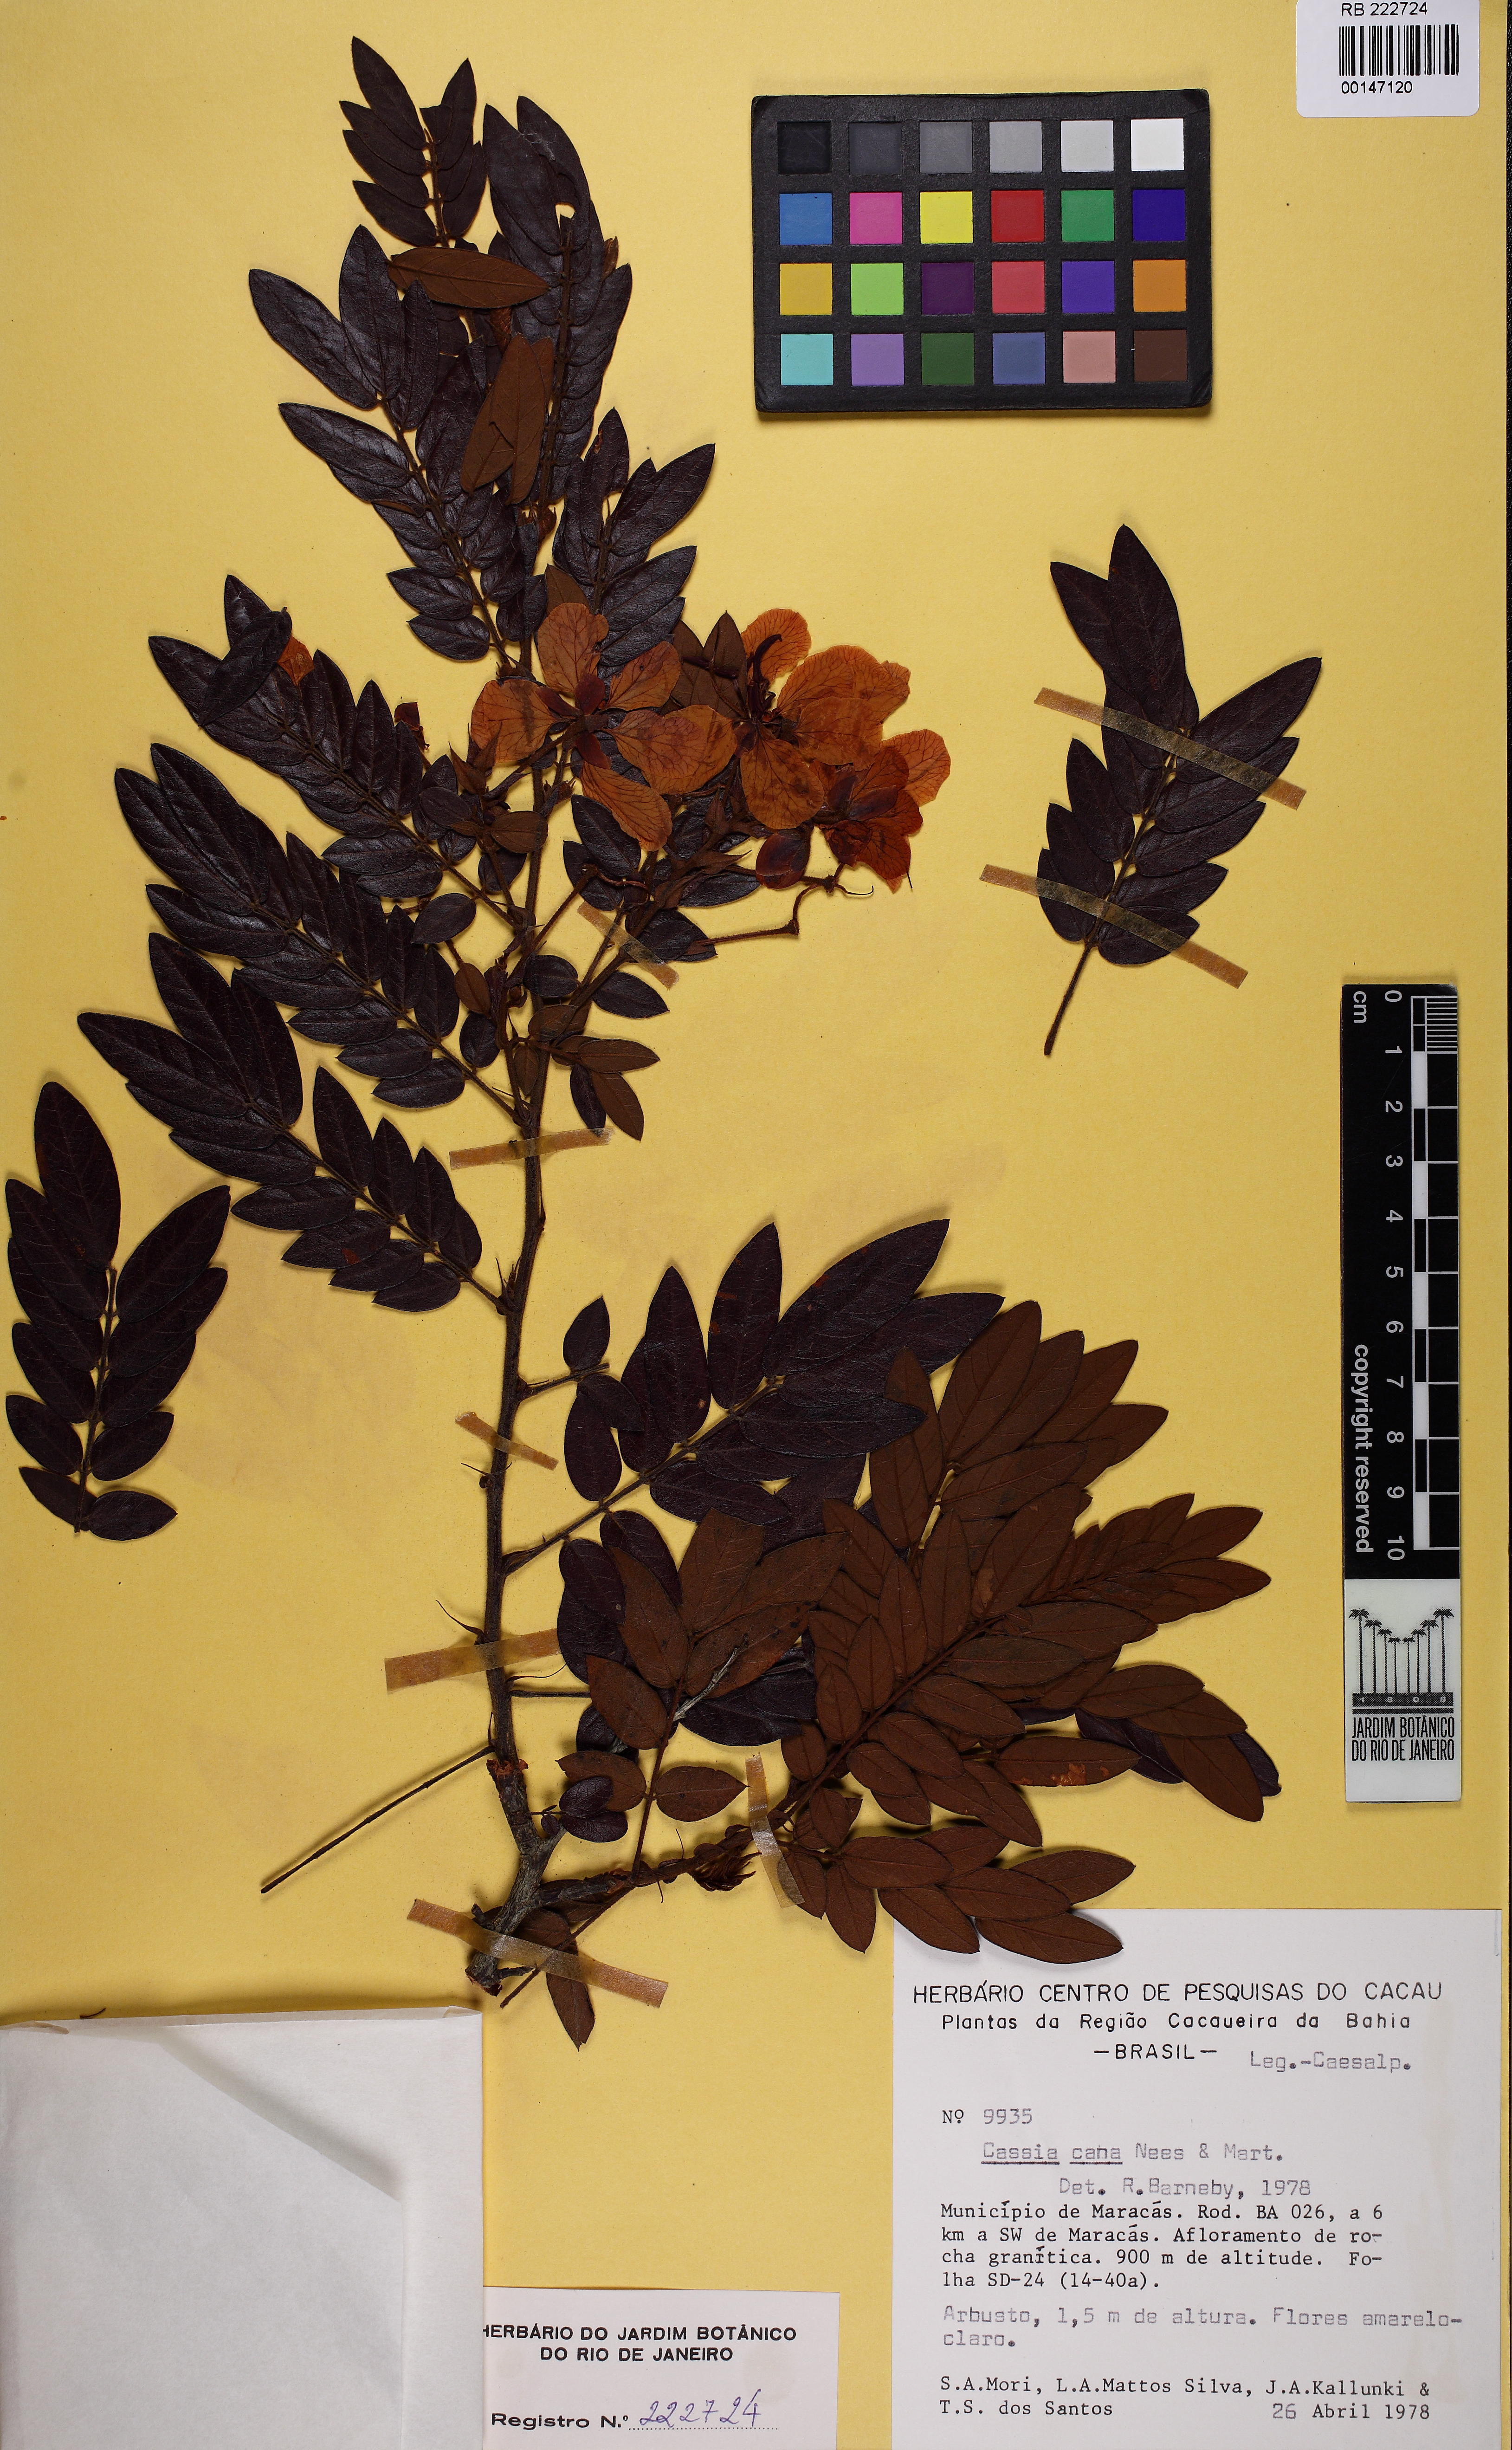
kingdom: Plantae
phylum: Tracheophyta
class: Magnoliopsida
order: Fabales
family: Fabaceae
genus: Senna
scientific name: Senna cana
